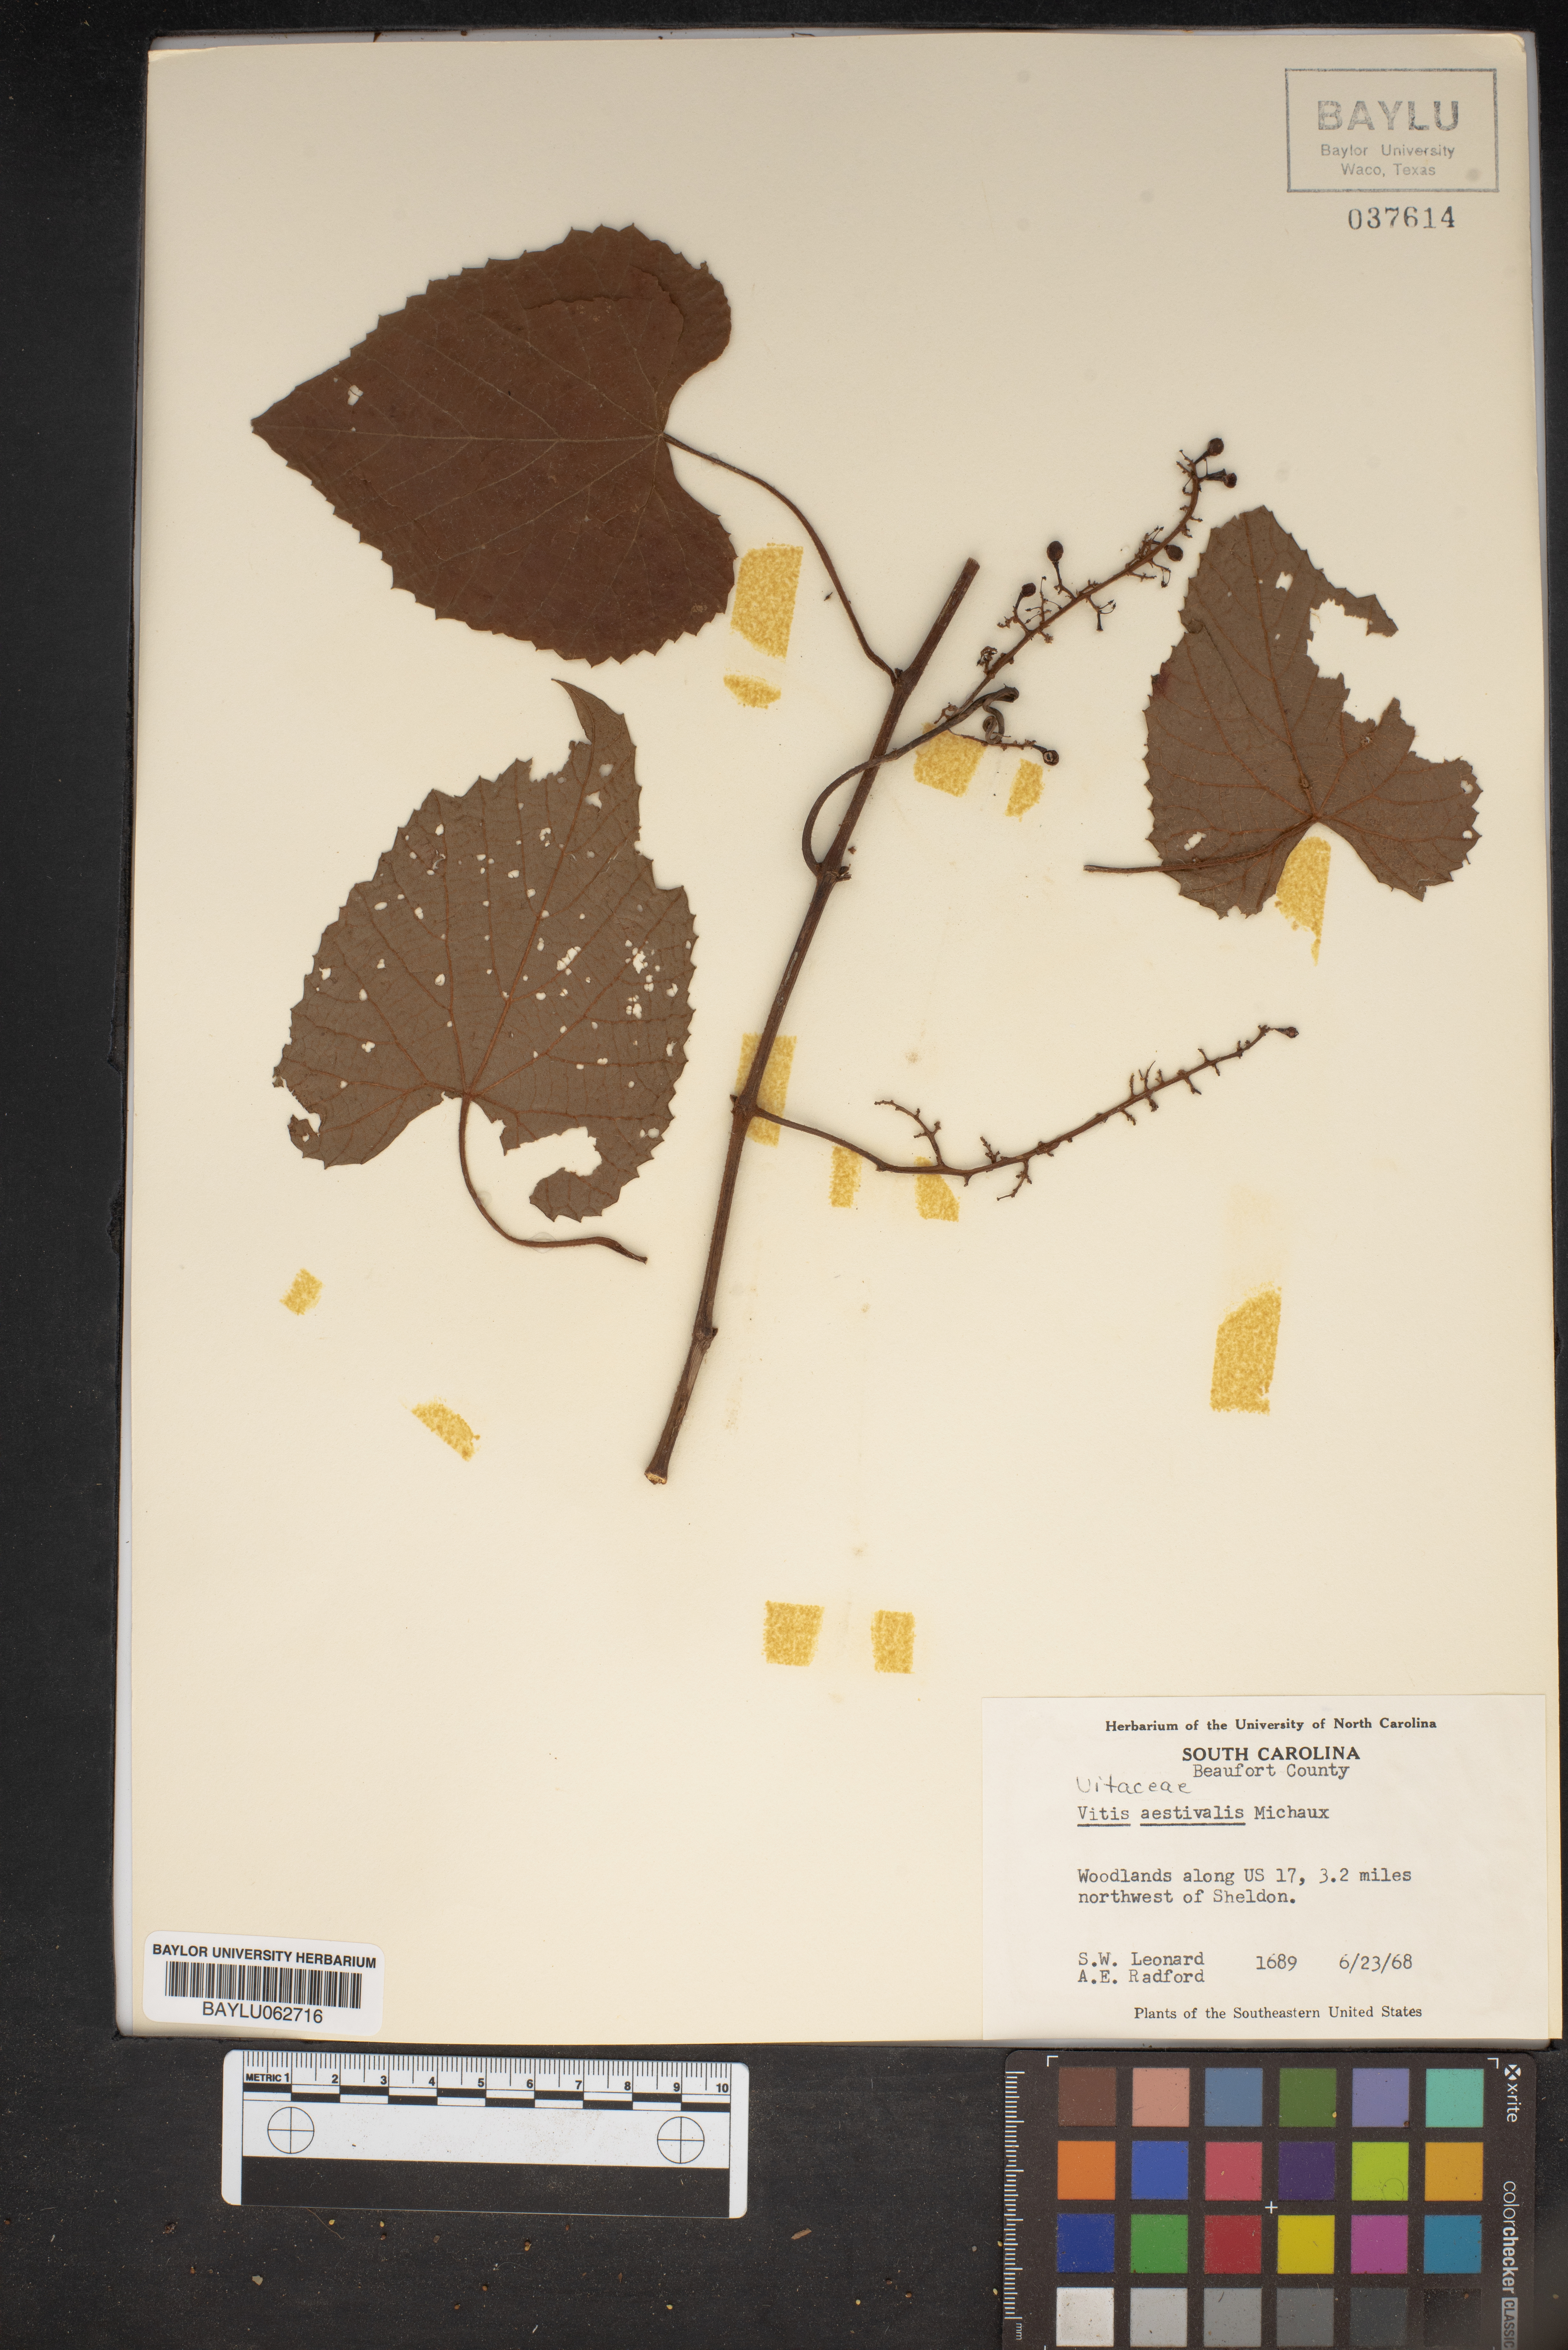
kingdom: Plantae
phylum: Tracheophyta
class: Magnoliopsida
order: Vitales
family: Vitaceae
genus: Vitis
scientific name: Vitis aestivalis
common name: Pigeon grape
